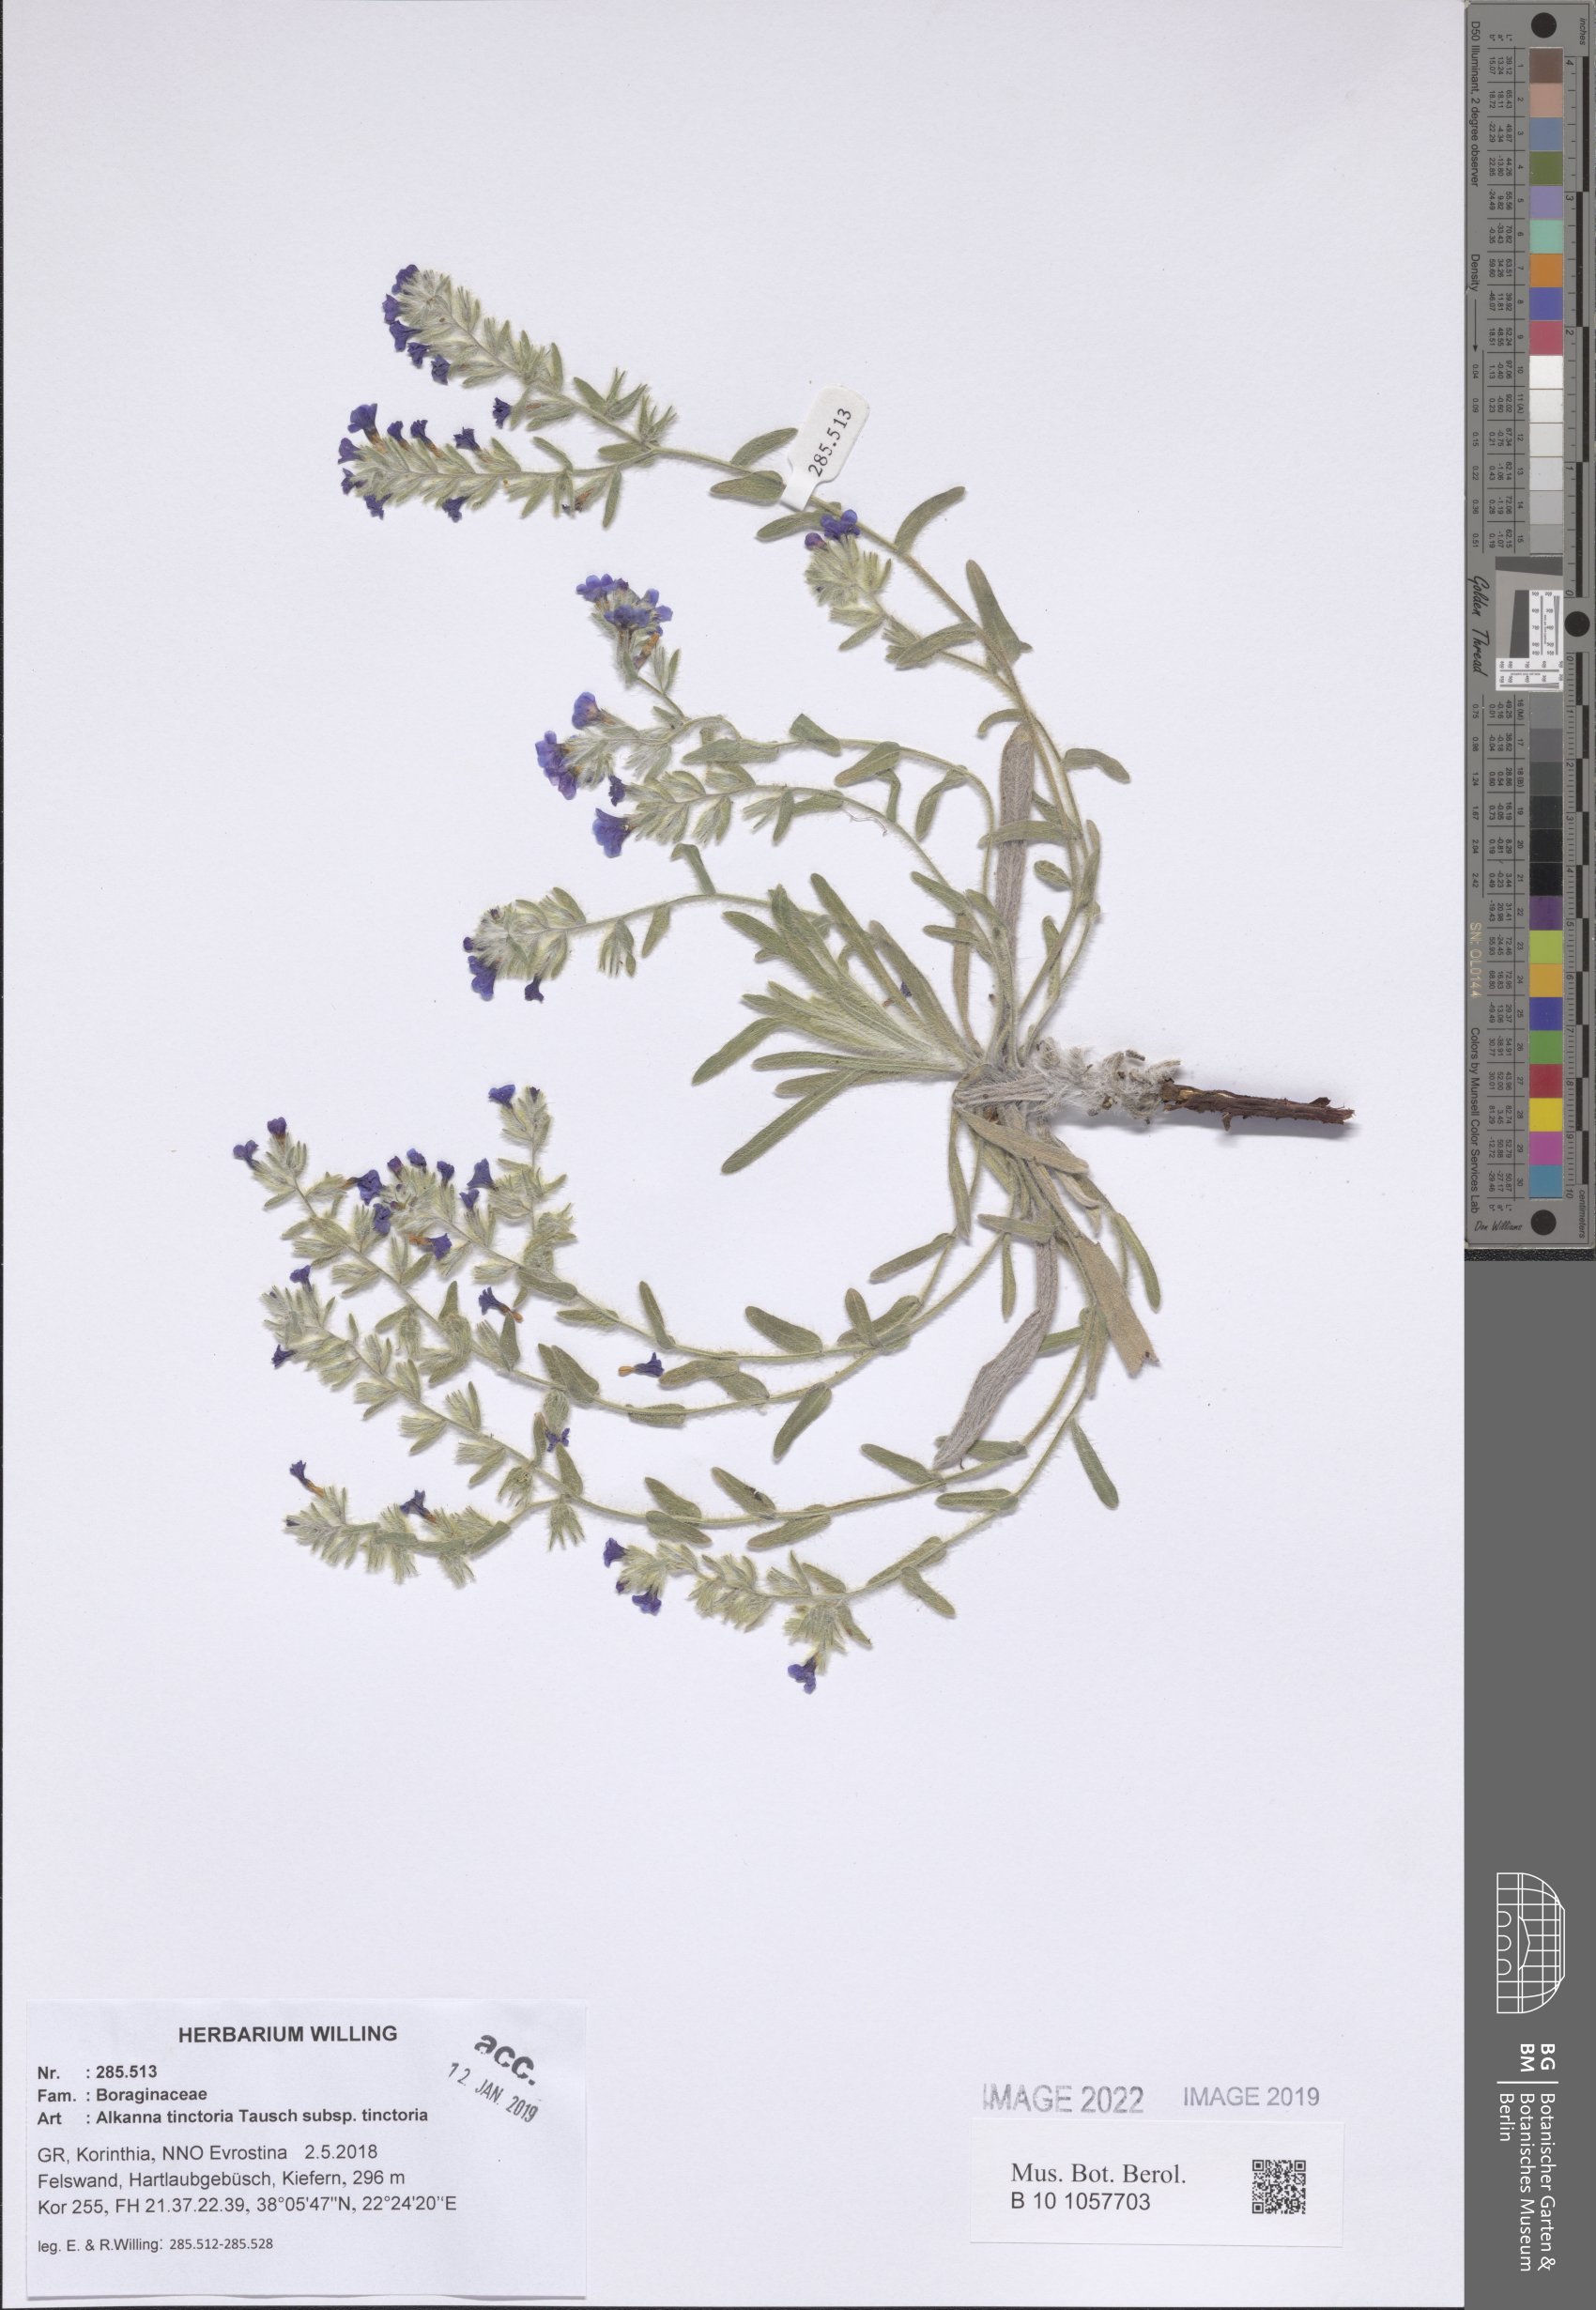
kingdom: Plantae
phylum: Tracheophyta
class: Magnoliopsida
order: Boraginales
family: Boraginaceae
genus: Alkanna
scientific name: Alkanna tinctoria
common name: Dyer's-alkanet
